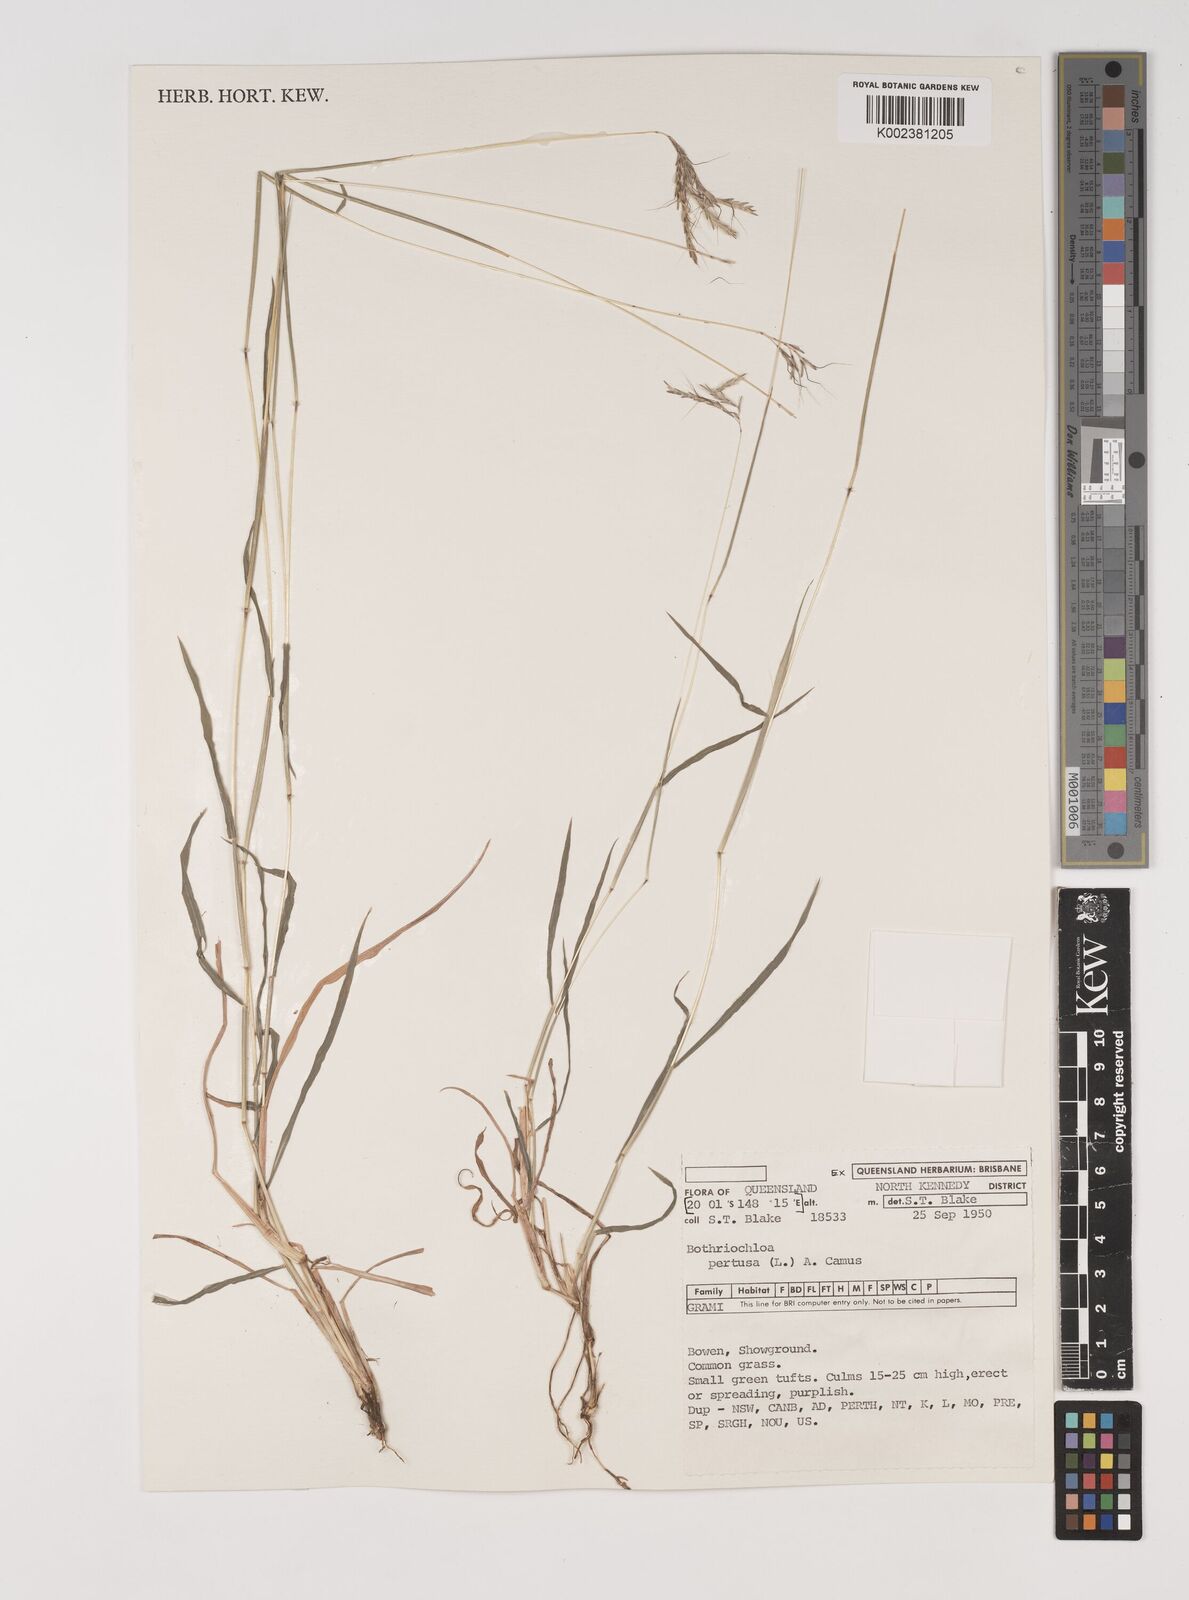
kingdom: Plantae
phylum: Tracheophyta
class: Liliopsida
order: Poales
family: Poaceae
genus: Bothriochloa
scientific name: Bothriochloa pertusa
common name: Pitted beardgrass
